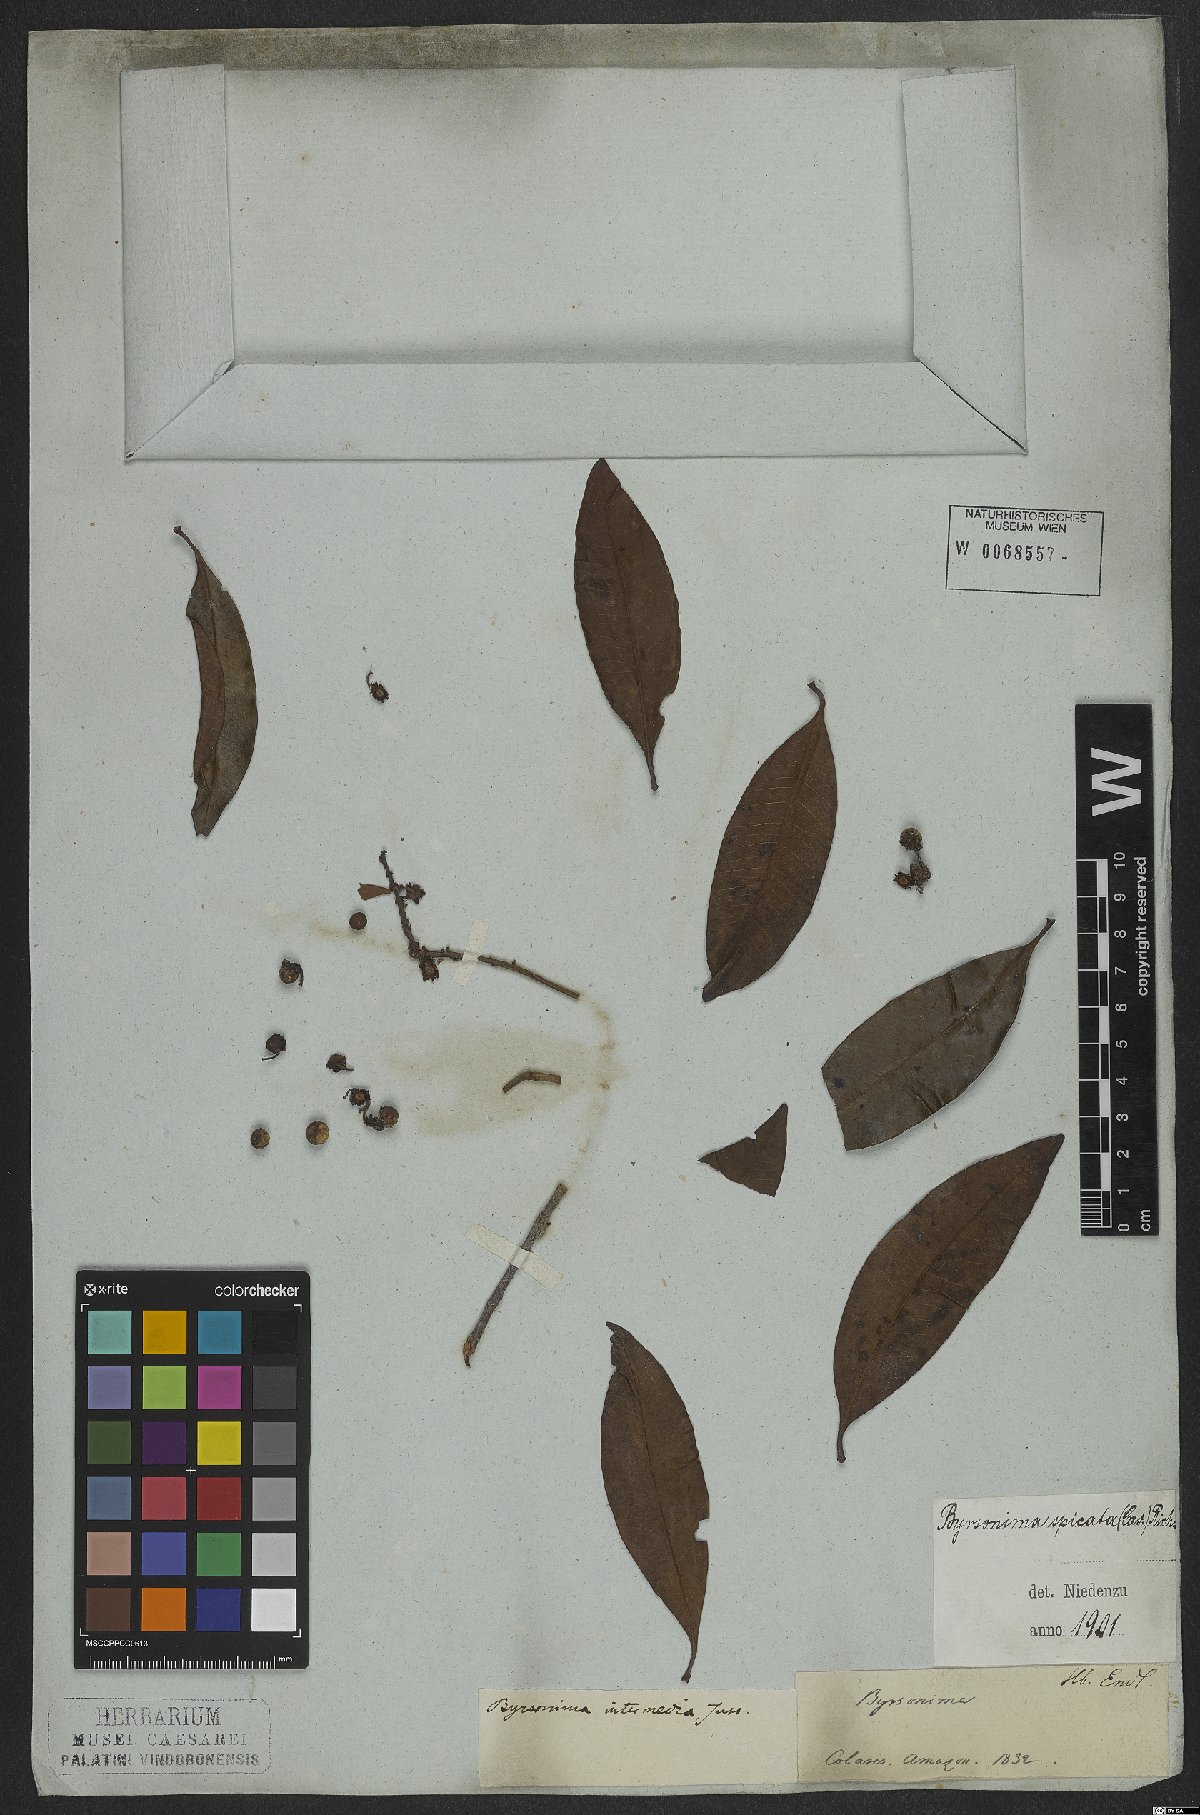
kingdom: Plantae
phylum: Tracheophyta
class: Magnoliopsida
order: Malpighiales
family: Malpighiaceae
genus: Byrsonima
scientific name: Byrsonima crassifolia
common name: Golden spoon
